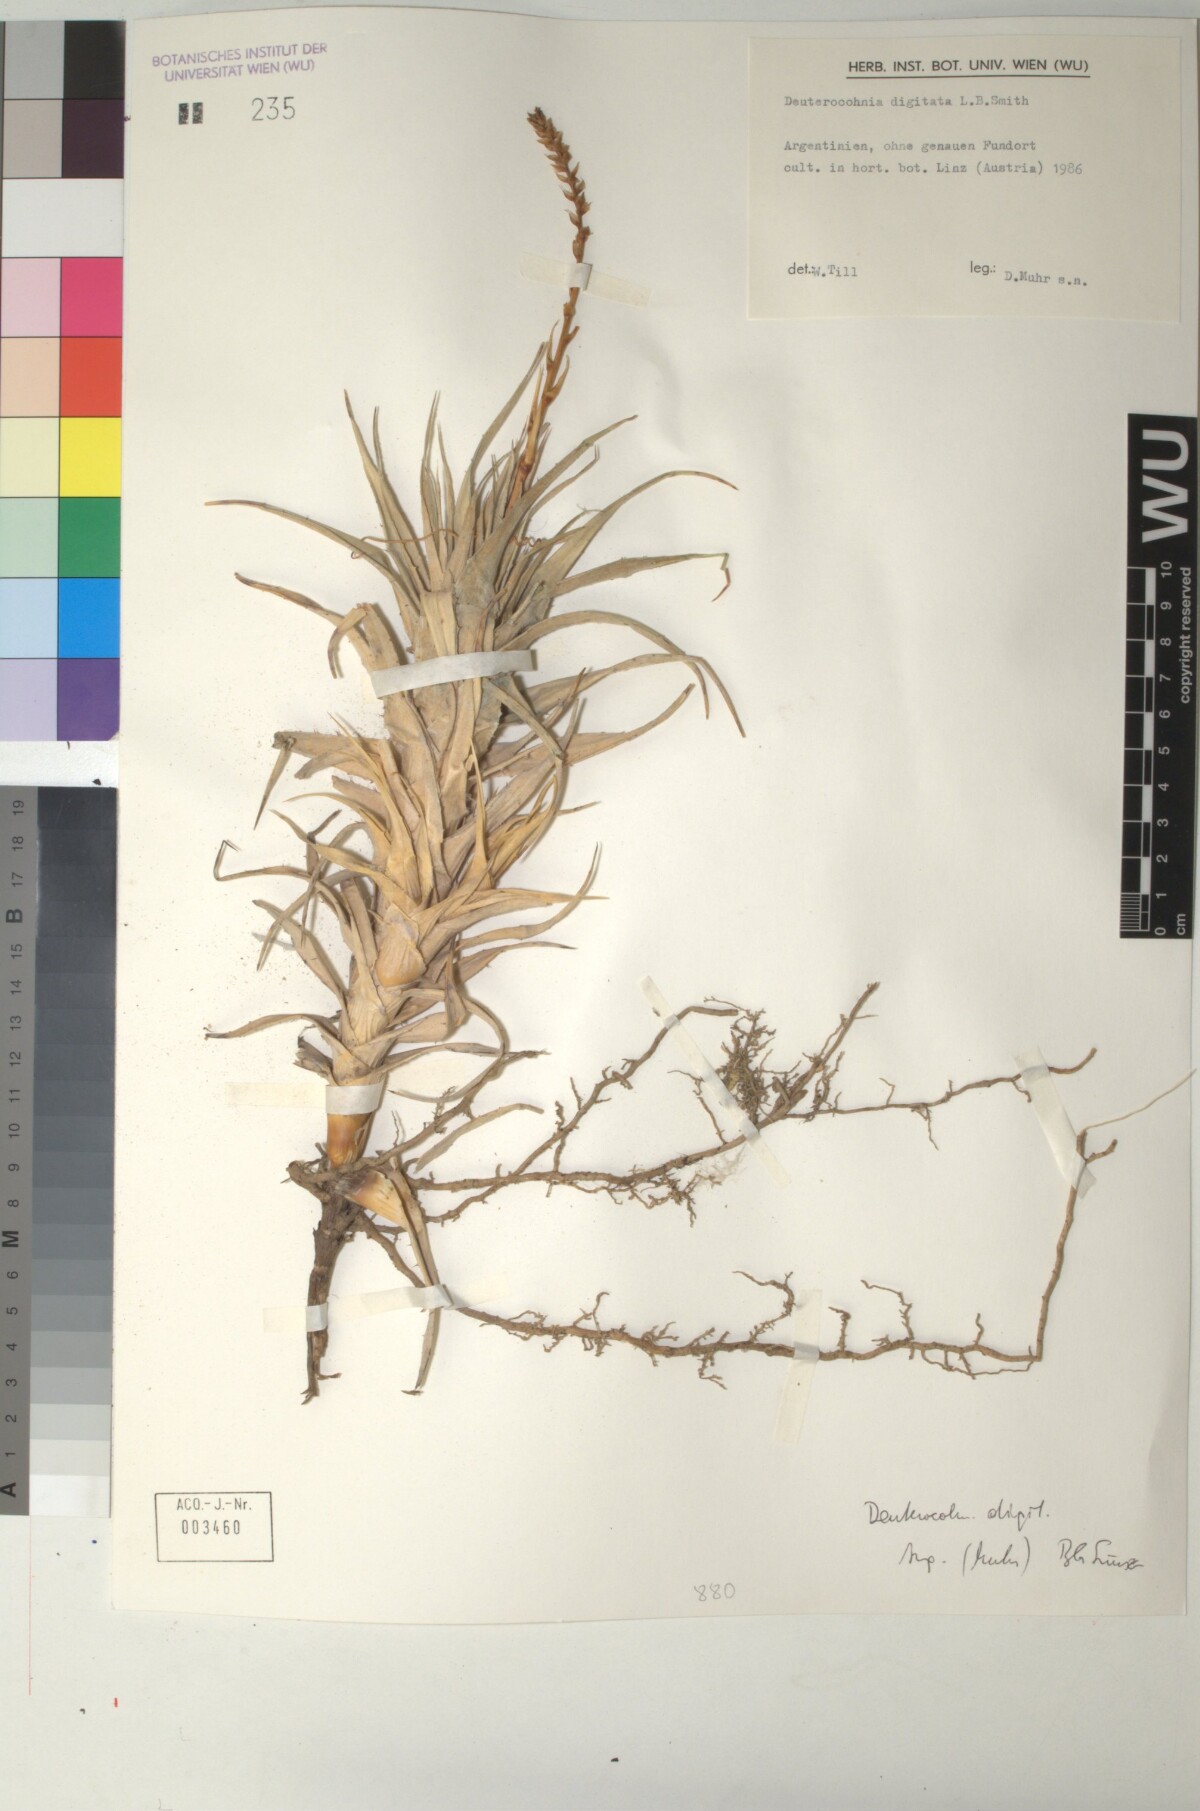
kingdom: Plantae
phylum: Tracheophyta
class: Liliopsida
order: Poales
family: Bromeliaceae
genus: Deuterocohnia
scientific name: Deuterocohnia digitata
